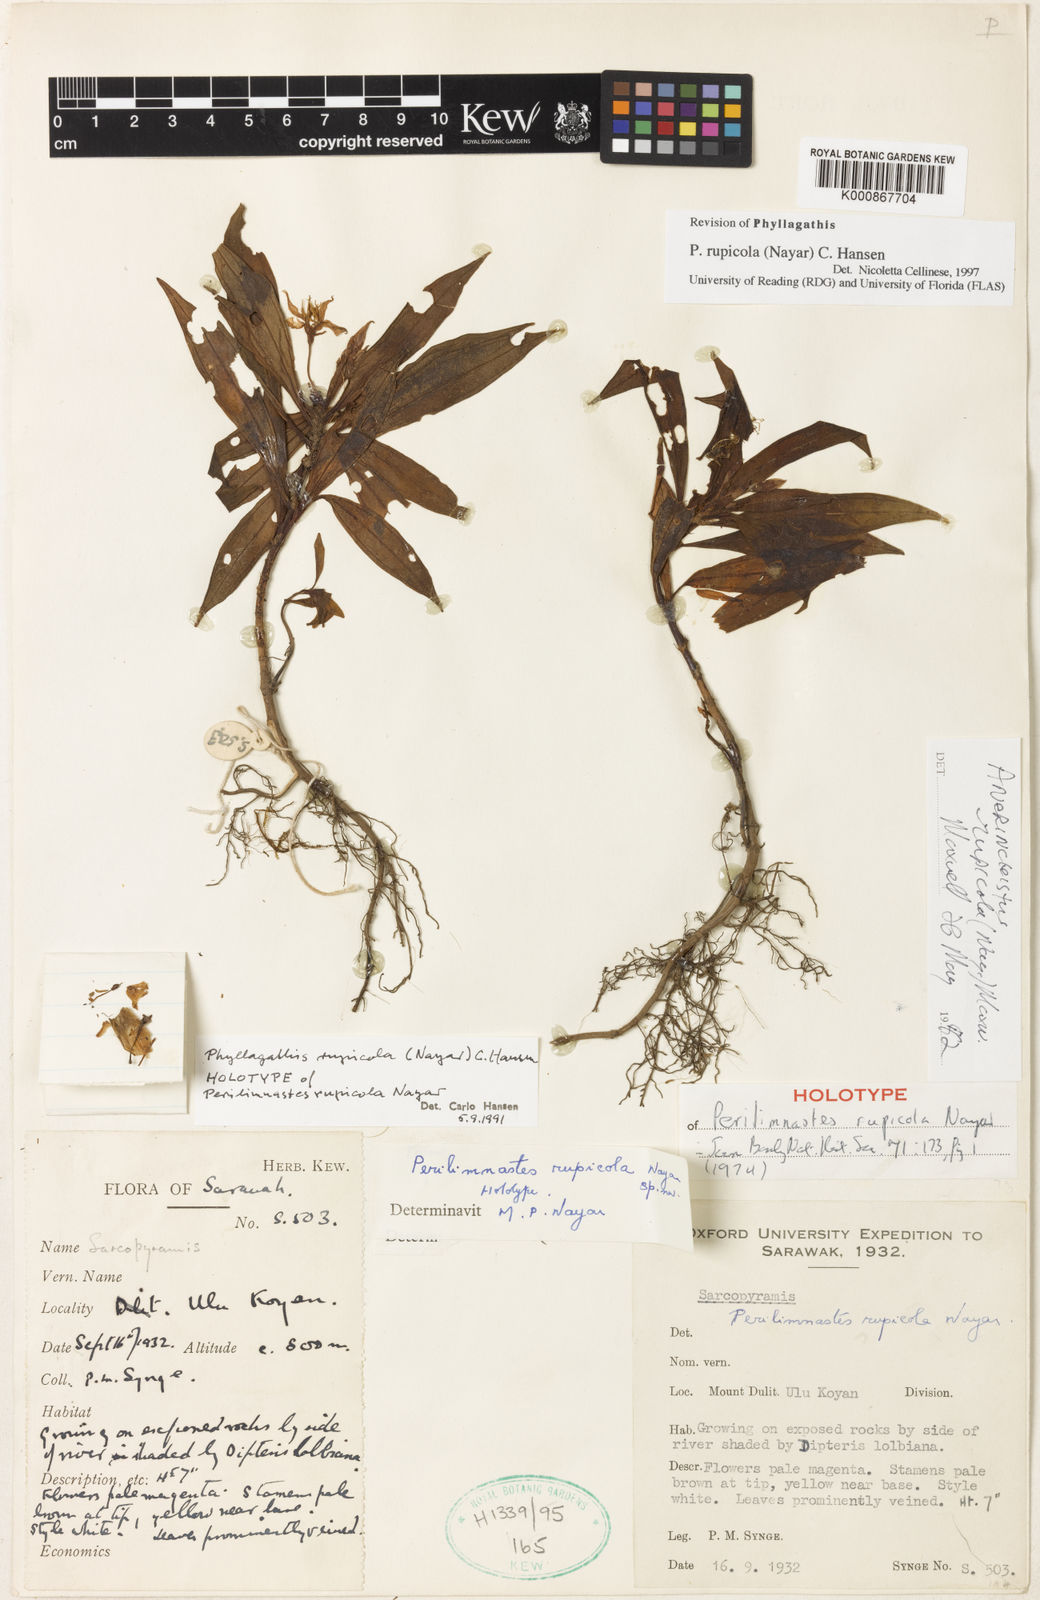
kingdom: Plantae
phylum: Tracheophyta
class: Magnoliopsida
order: Myrtales
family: Melastomataceae
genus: Anerincleistus
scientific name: Anerincleistus rupicolus
